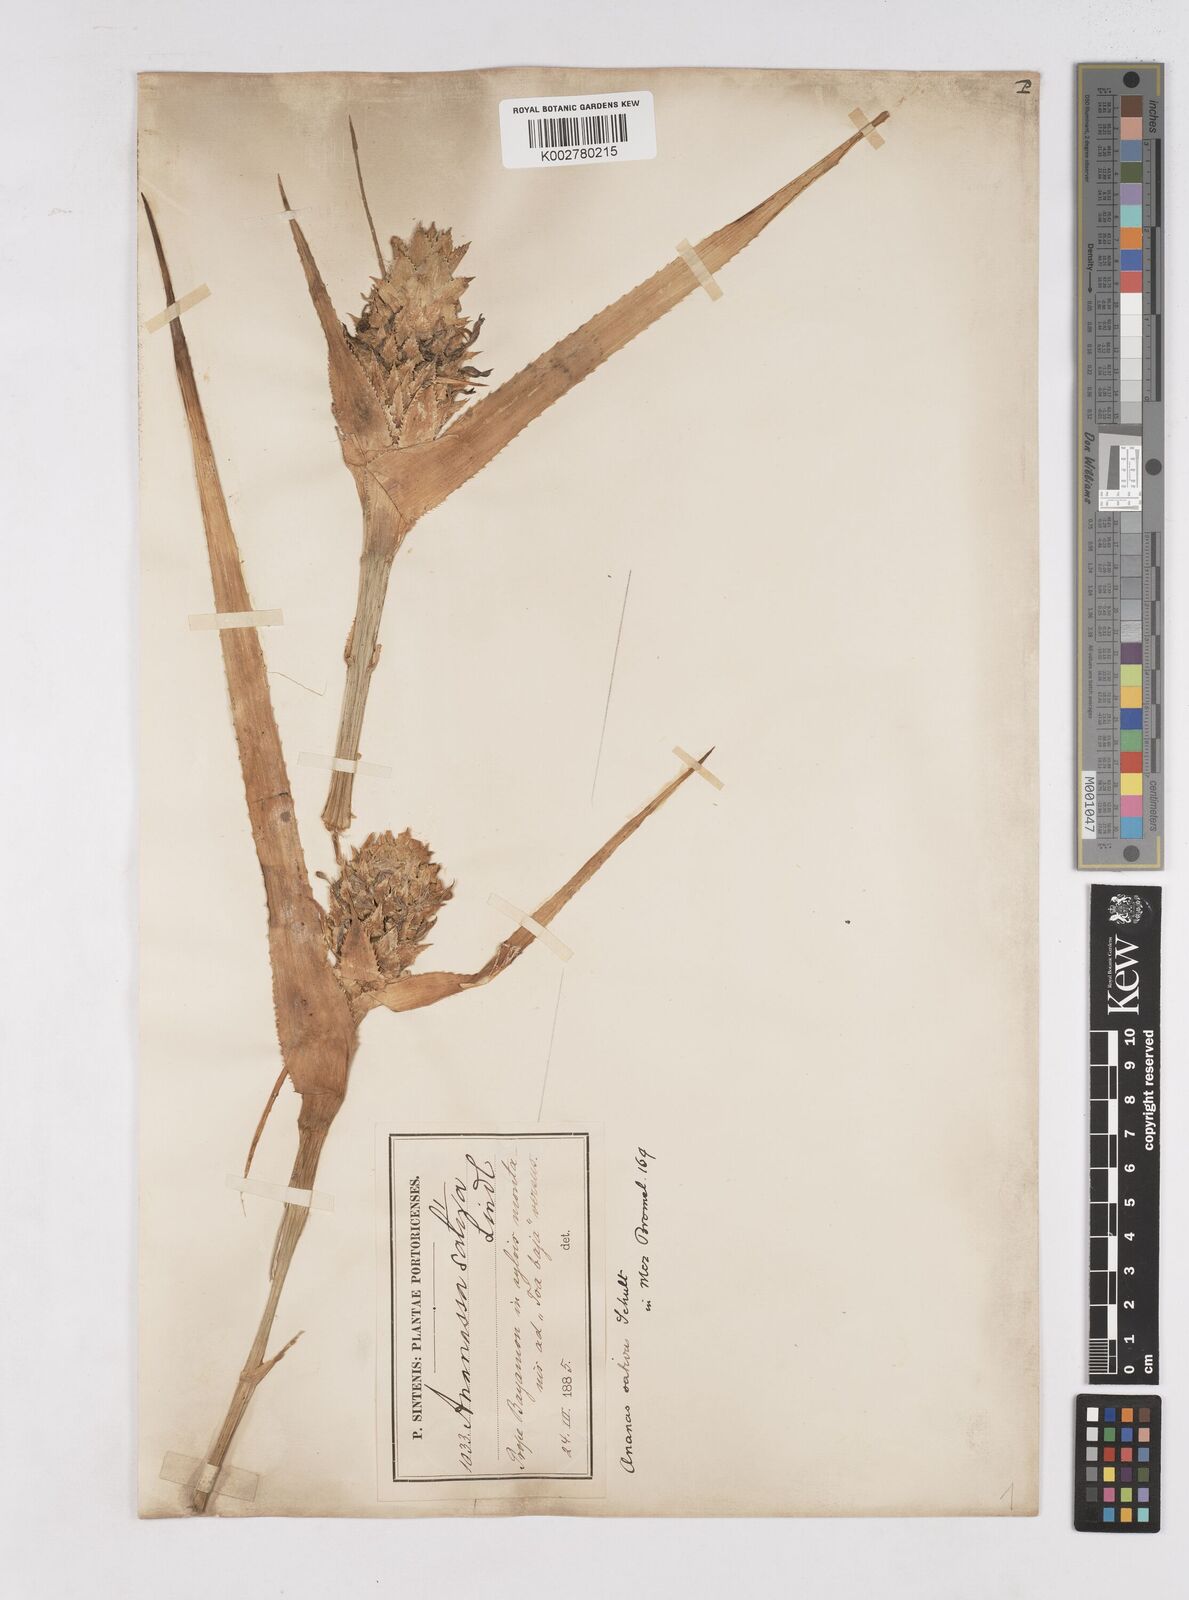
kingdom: Plantae
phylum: Tracheophyta
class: Liliopsida
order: Poales
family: Bromeliaceae
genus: Ananas
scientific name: Ananas comosus
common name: Pineapple
